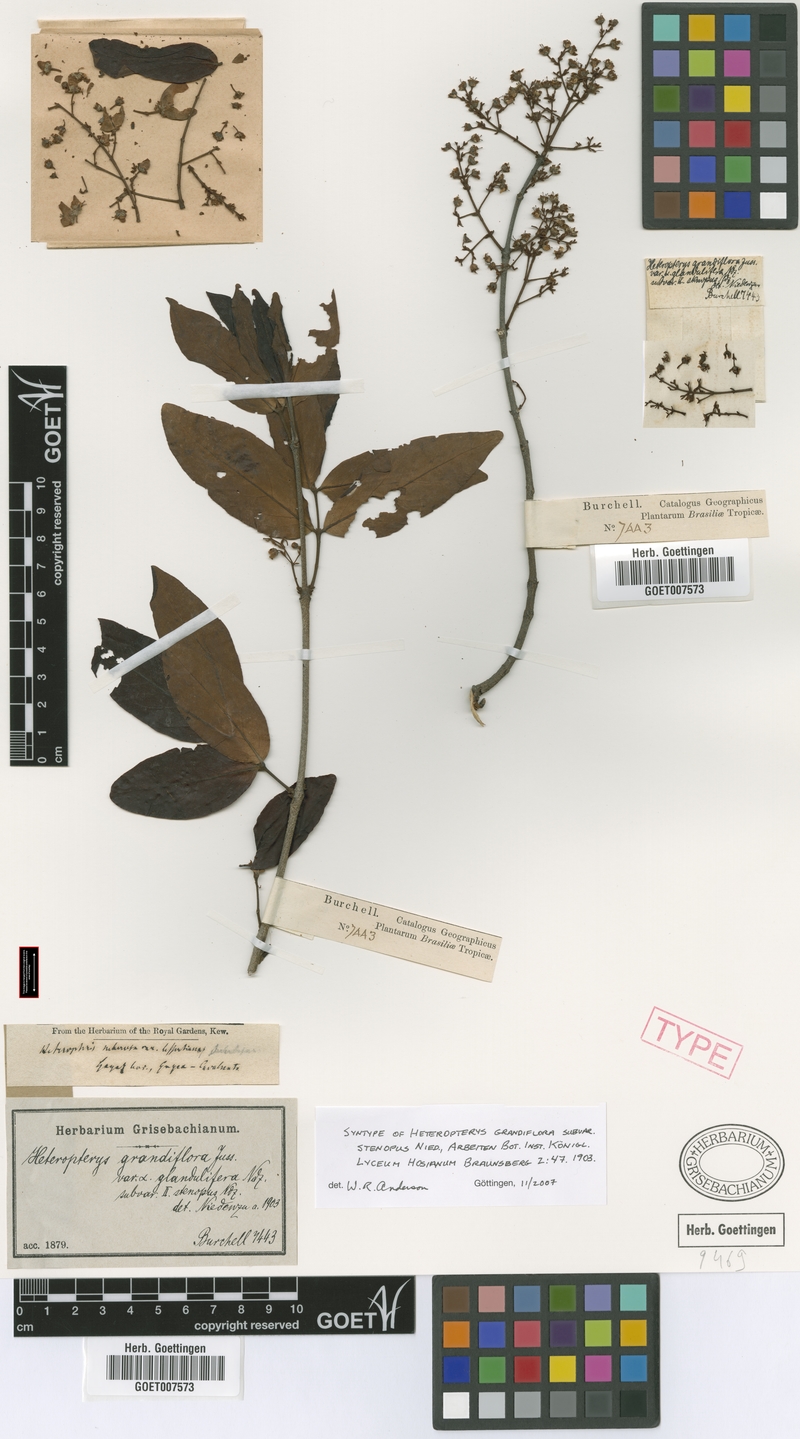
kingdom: Plantae
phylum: Tracheophyta
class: Magnoliopsida
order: Malpighiales
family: Malpighiaceae
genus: Heteropterys
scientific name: Heteropterys grandiflora
